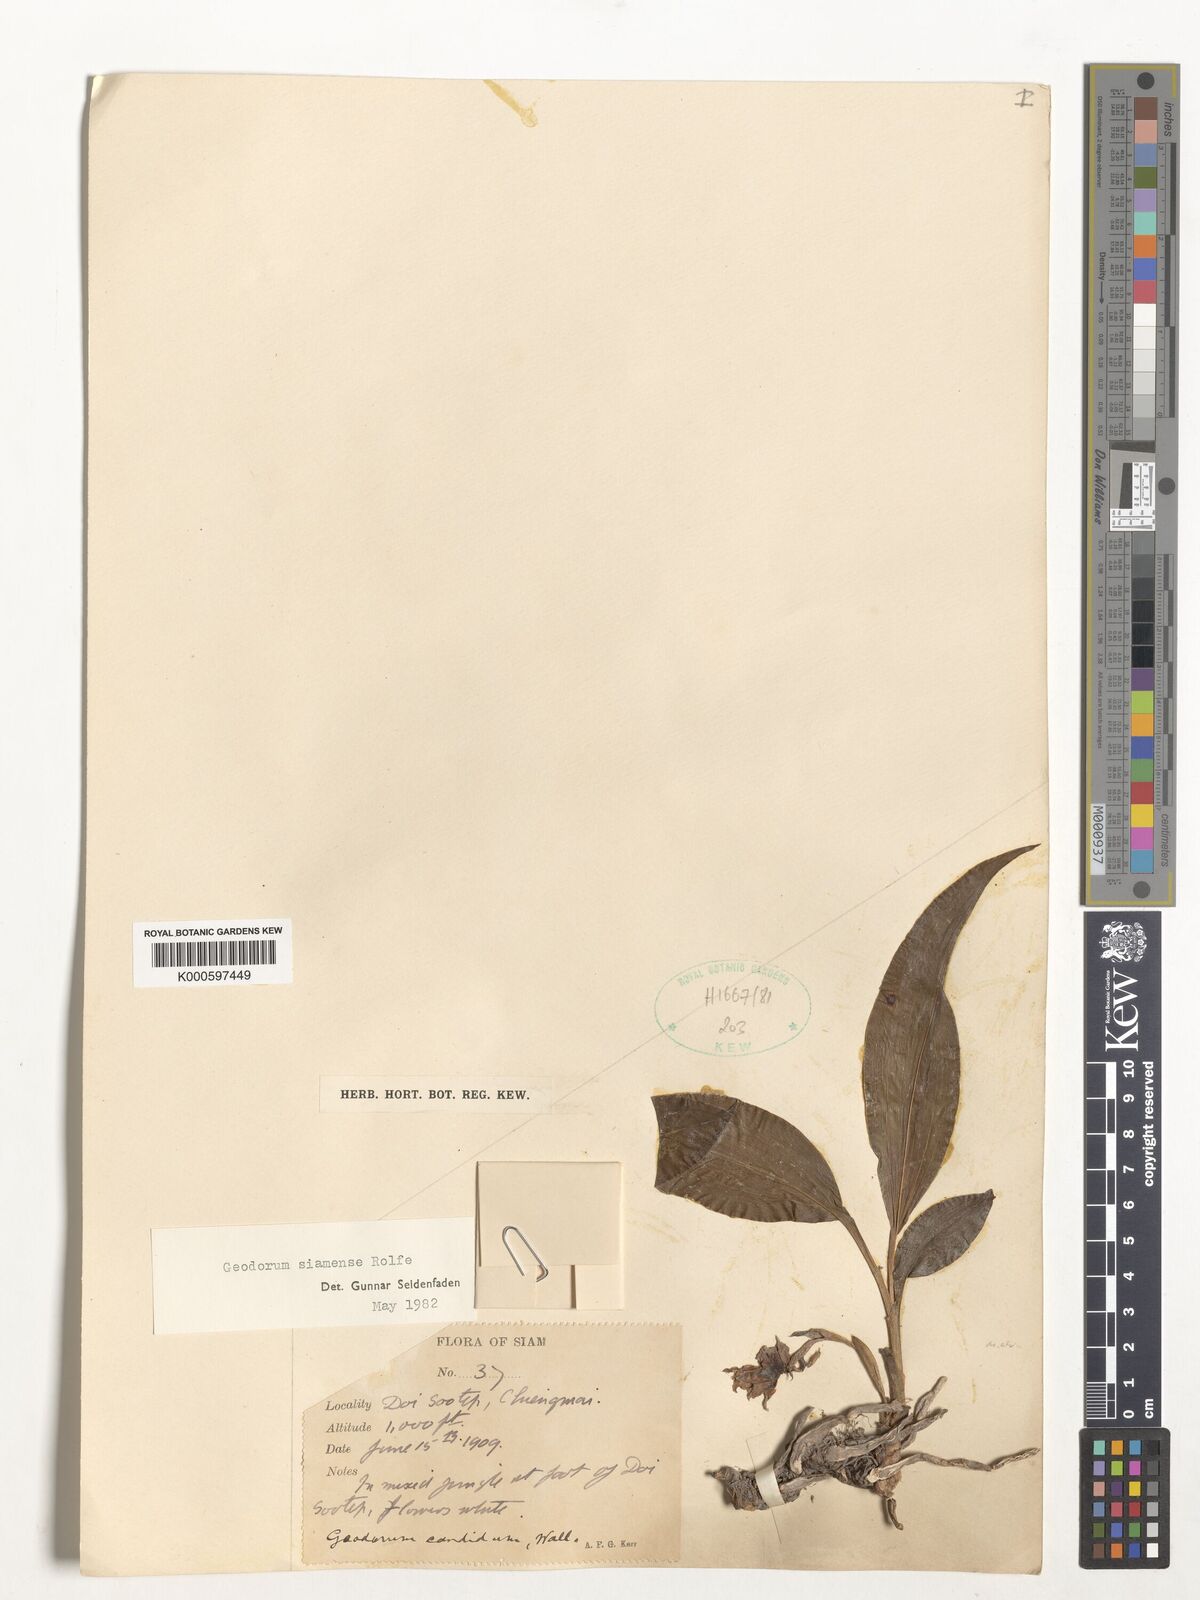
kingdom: Plantae
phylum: Tracheophyta
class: Liliopsida
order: Asparagales
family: Orchidaceae
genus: Eulophia
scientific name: Eulophia exigua
